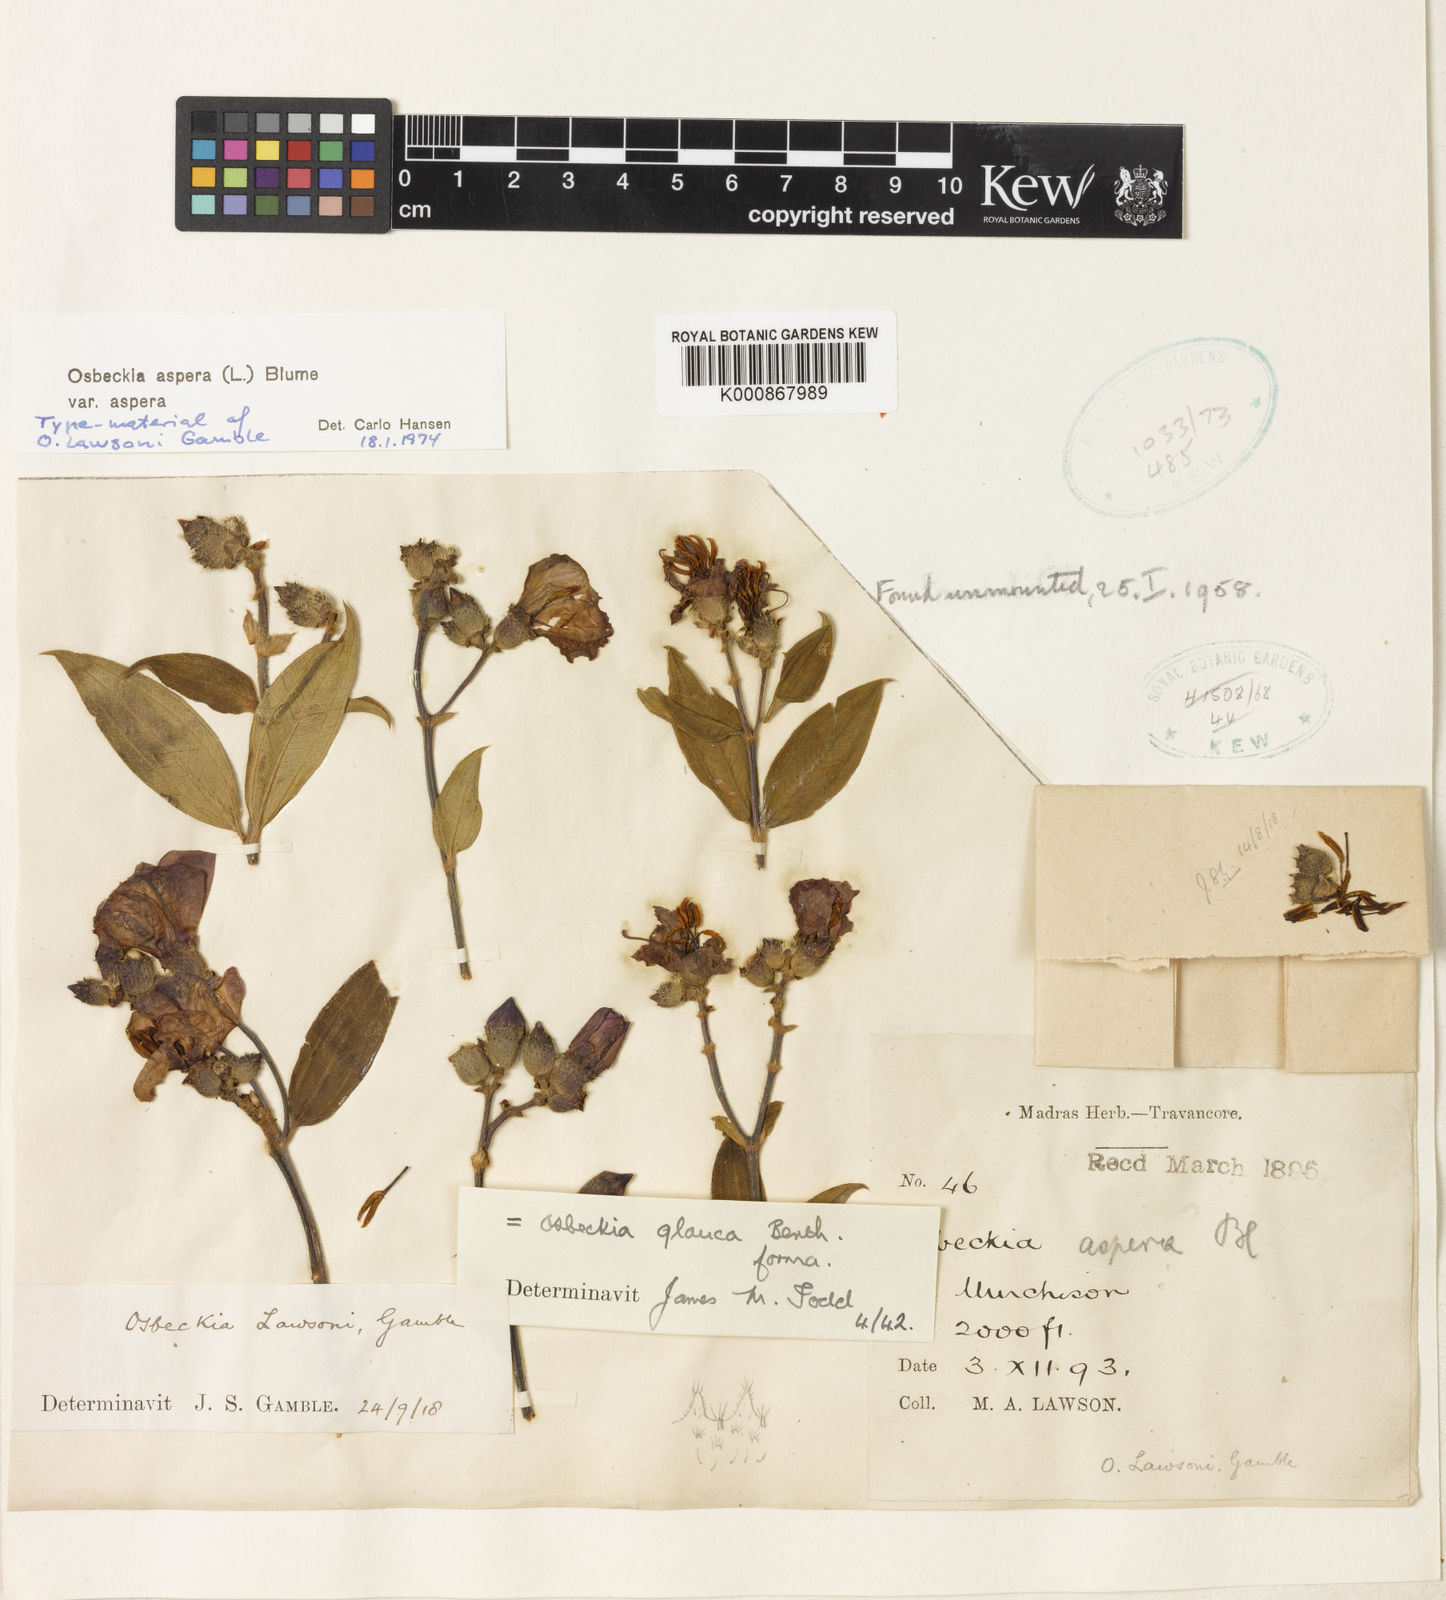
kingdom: Plantae
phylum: Tracheophyta
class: Magnoliopsida
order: Myrtales
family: Melastomataceae
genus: Osbeckia
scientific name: Osbeckia aspera
